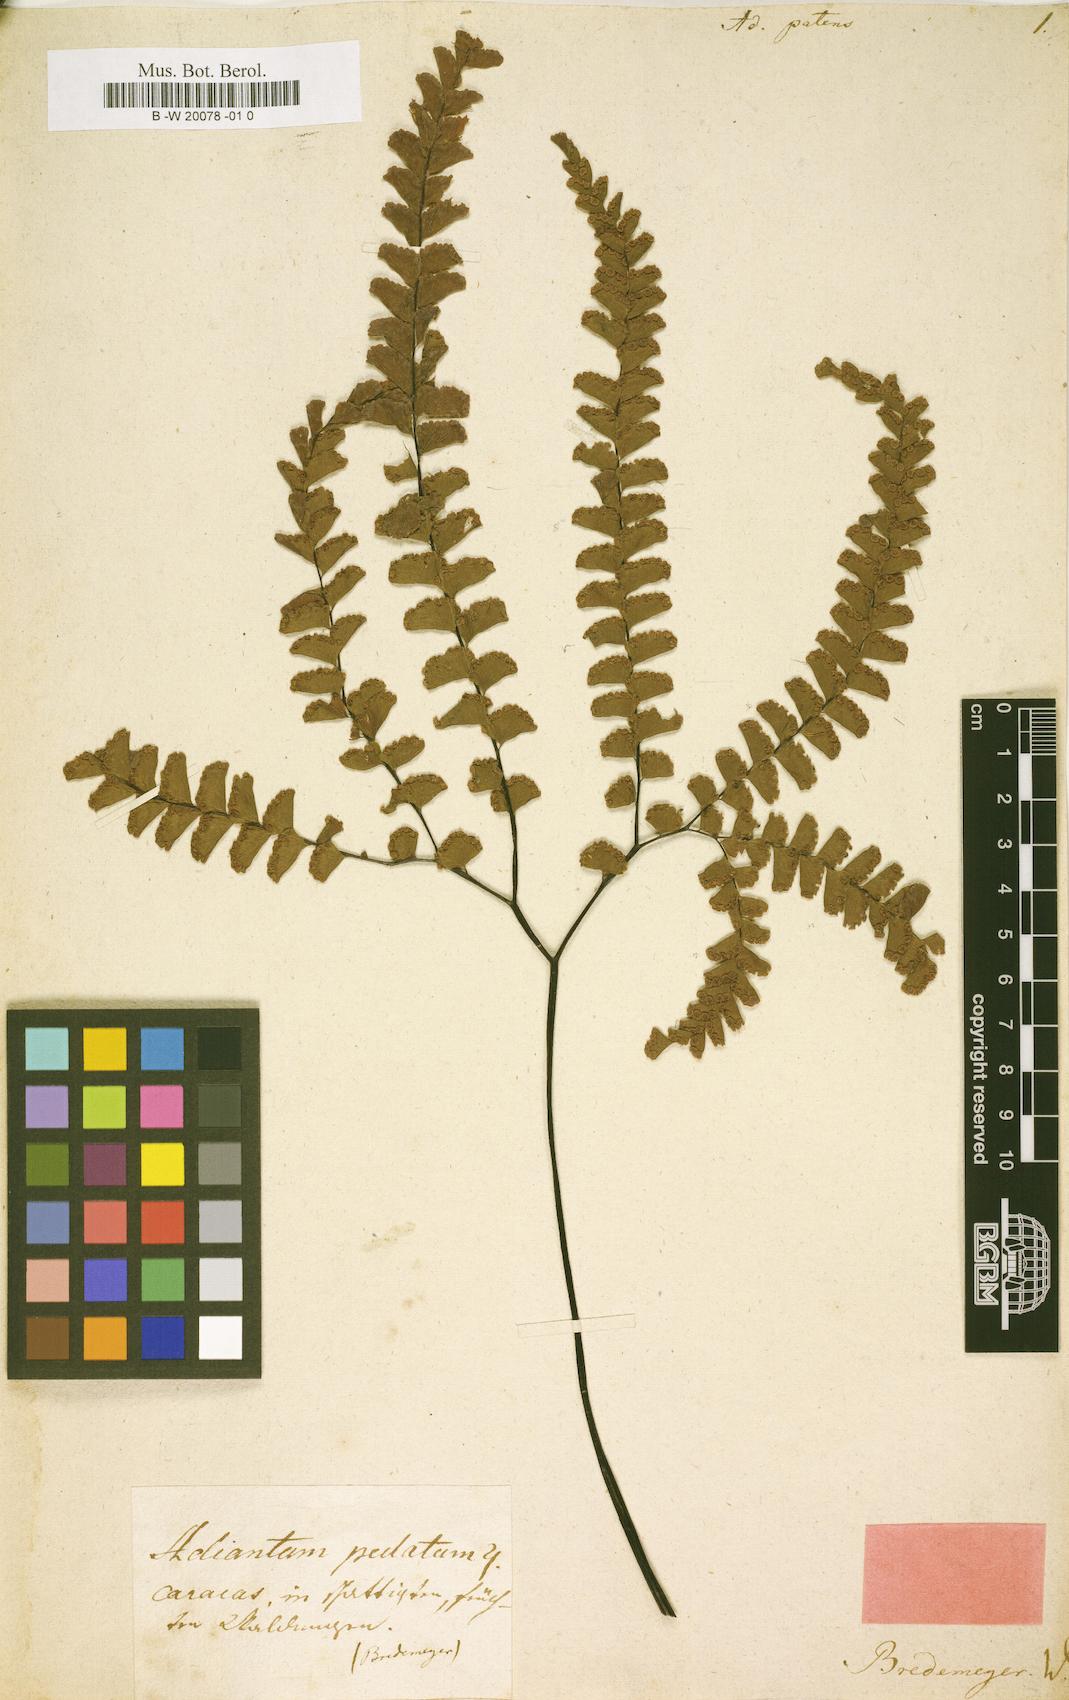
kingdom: Plantae
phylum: Tracheophyta
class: Polypodiopsida
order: Polypodiales
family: Pteridaceae
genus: Adiantum
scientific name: Adiantum patens
